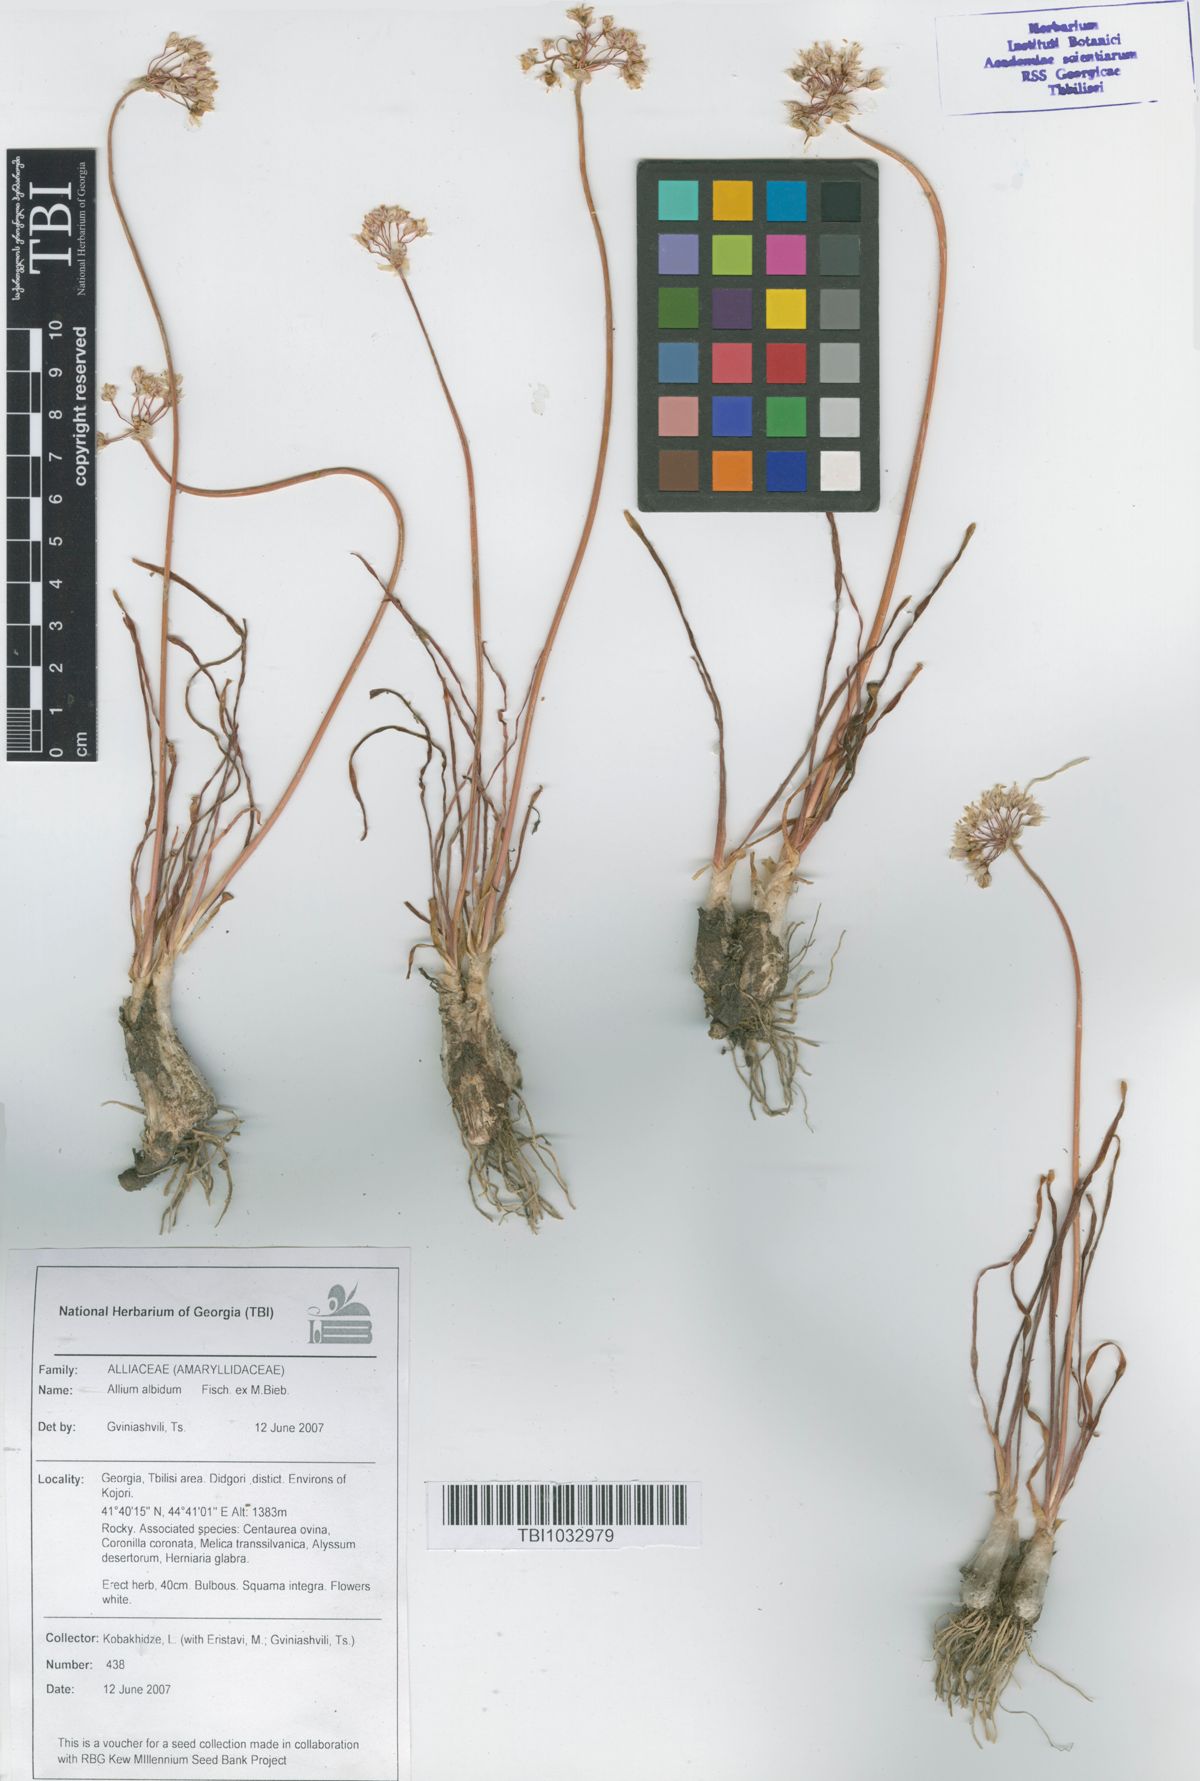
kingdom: Plantae
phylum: Tracheophyta
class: Liliopsida
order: Asparagales
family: Amaryllidaceae
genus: Allium
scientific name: Allium denudatum
